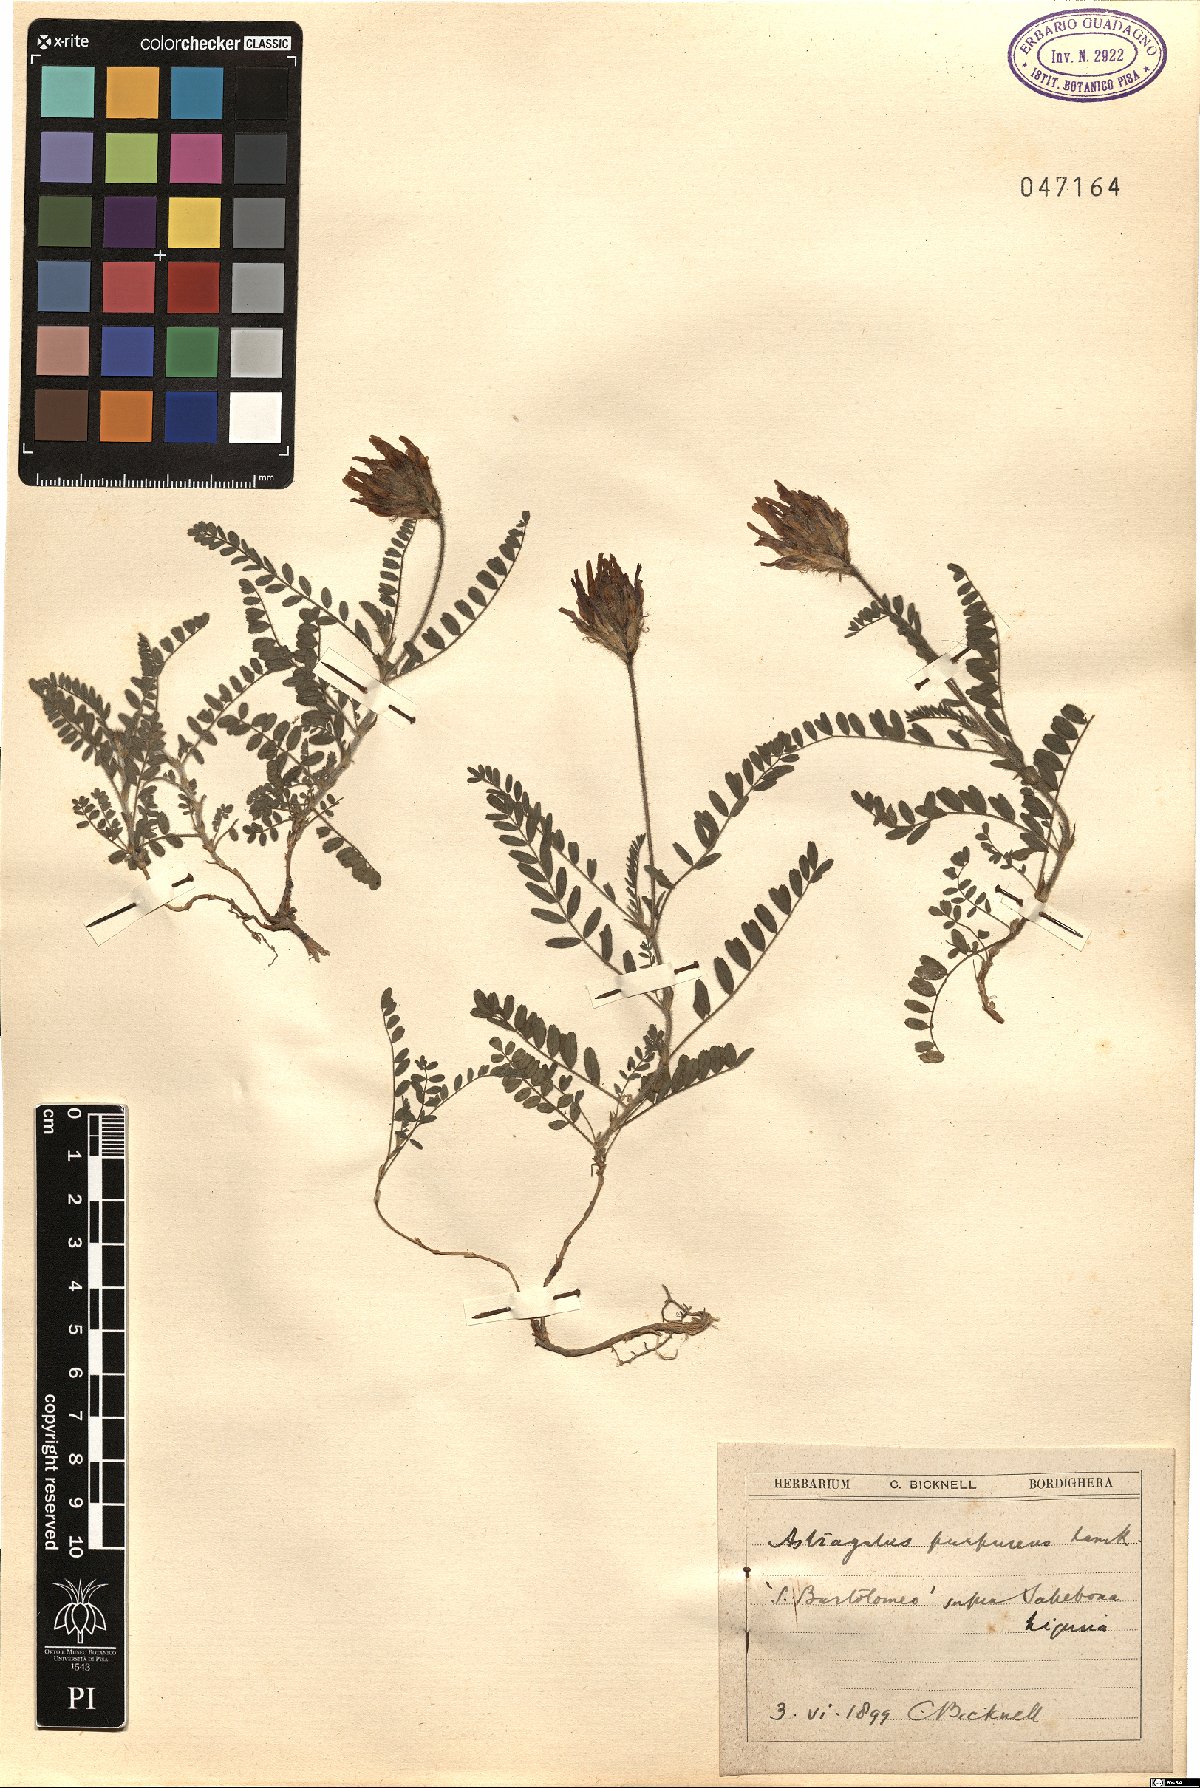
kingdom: Plantae
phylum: Tracheophyta
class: Magnoliopsida
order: Fabales
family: Fabaceae
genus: Astragalus
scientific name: Astragalus hypoglottis
